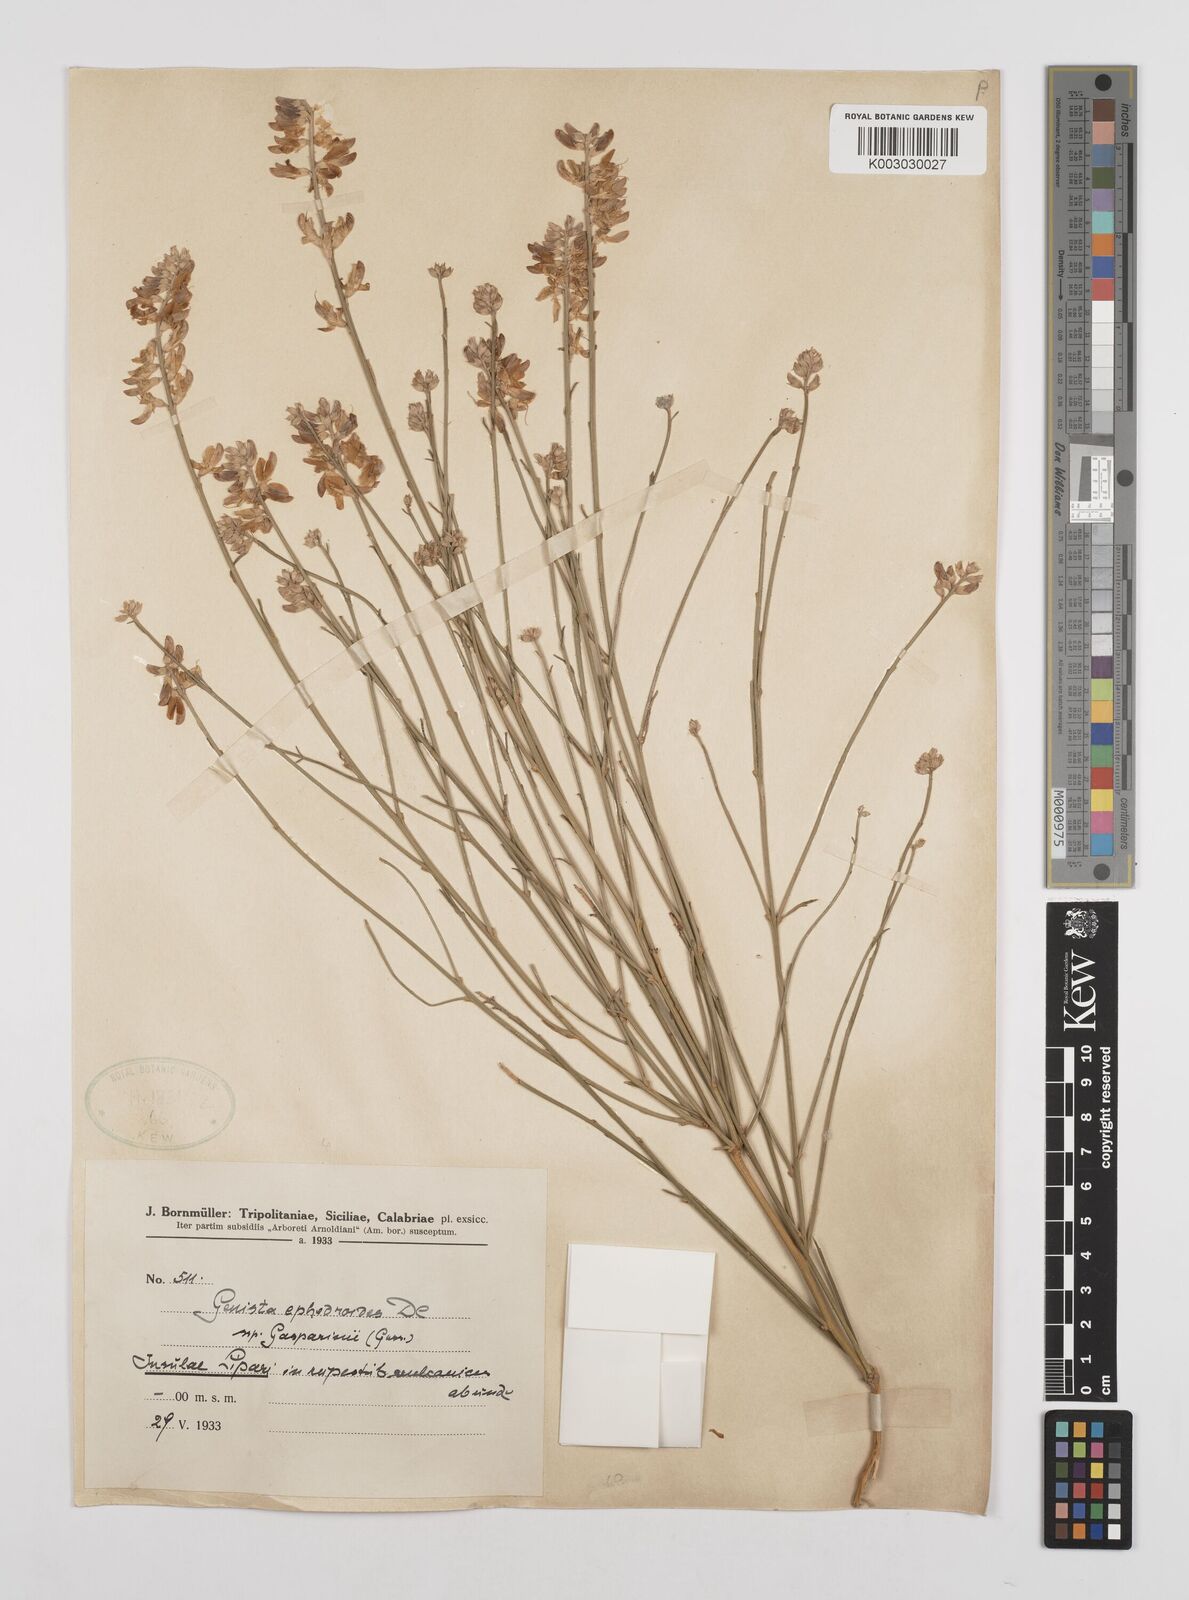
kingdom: Plantae
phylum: Tracheophyta
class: Magnoliopsida
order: Fabales
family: Fabaceae
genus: Genista
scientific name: Genista ephedroides
